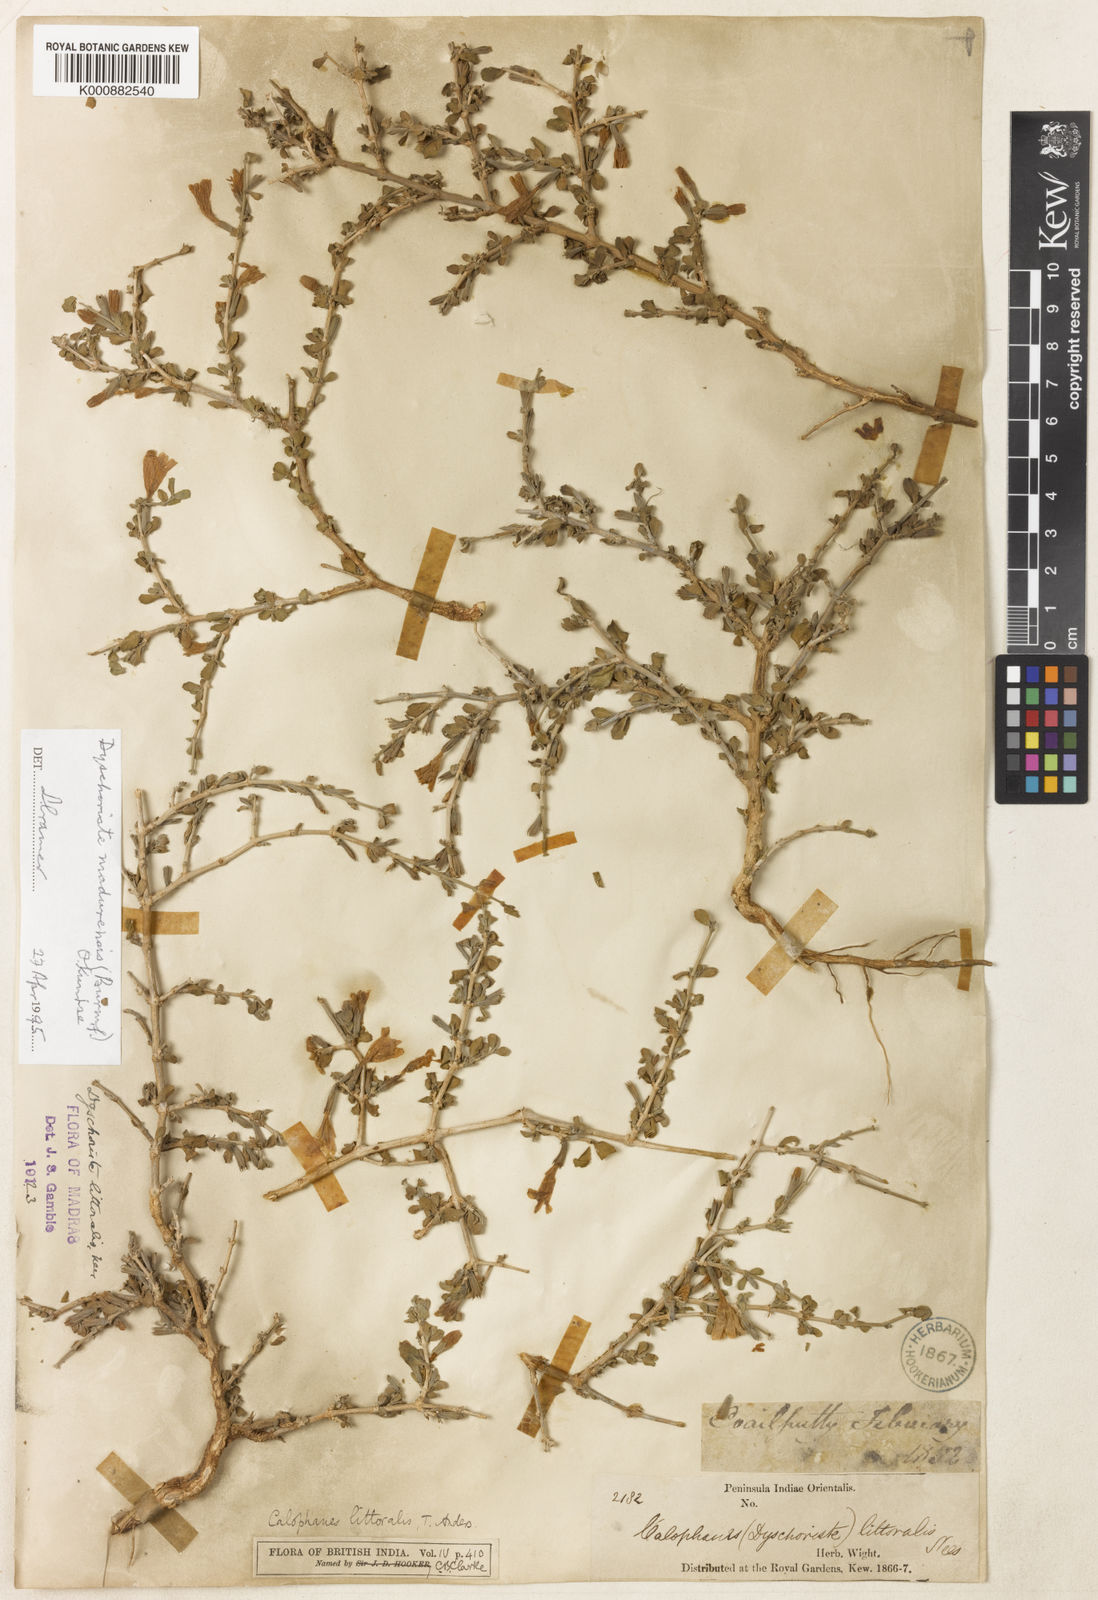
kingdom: Plantae
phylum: Tracheophyta
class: Magnoliopsida
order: Lamiales
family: Acanthaceae
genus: Dyschoriste
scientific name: Dyschoriste madurensis
